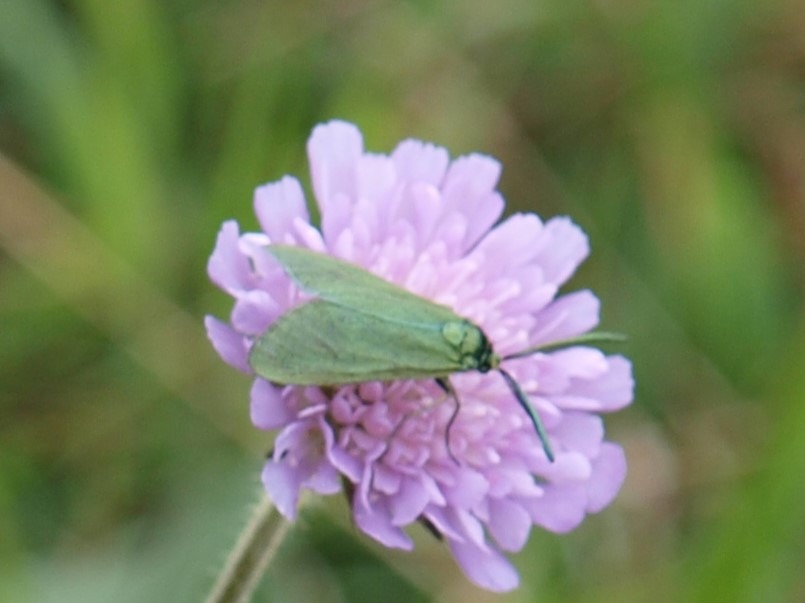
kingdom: Animalia
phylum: Arthropoda
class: Insecta
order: Lepidoptera
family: Zygaenidae
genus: Adscita
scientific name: Adscita statices
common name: Metalvinge
